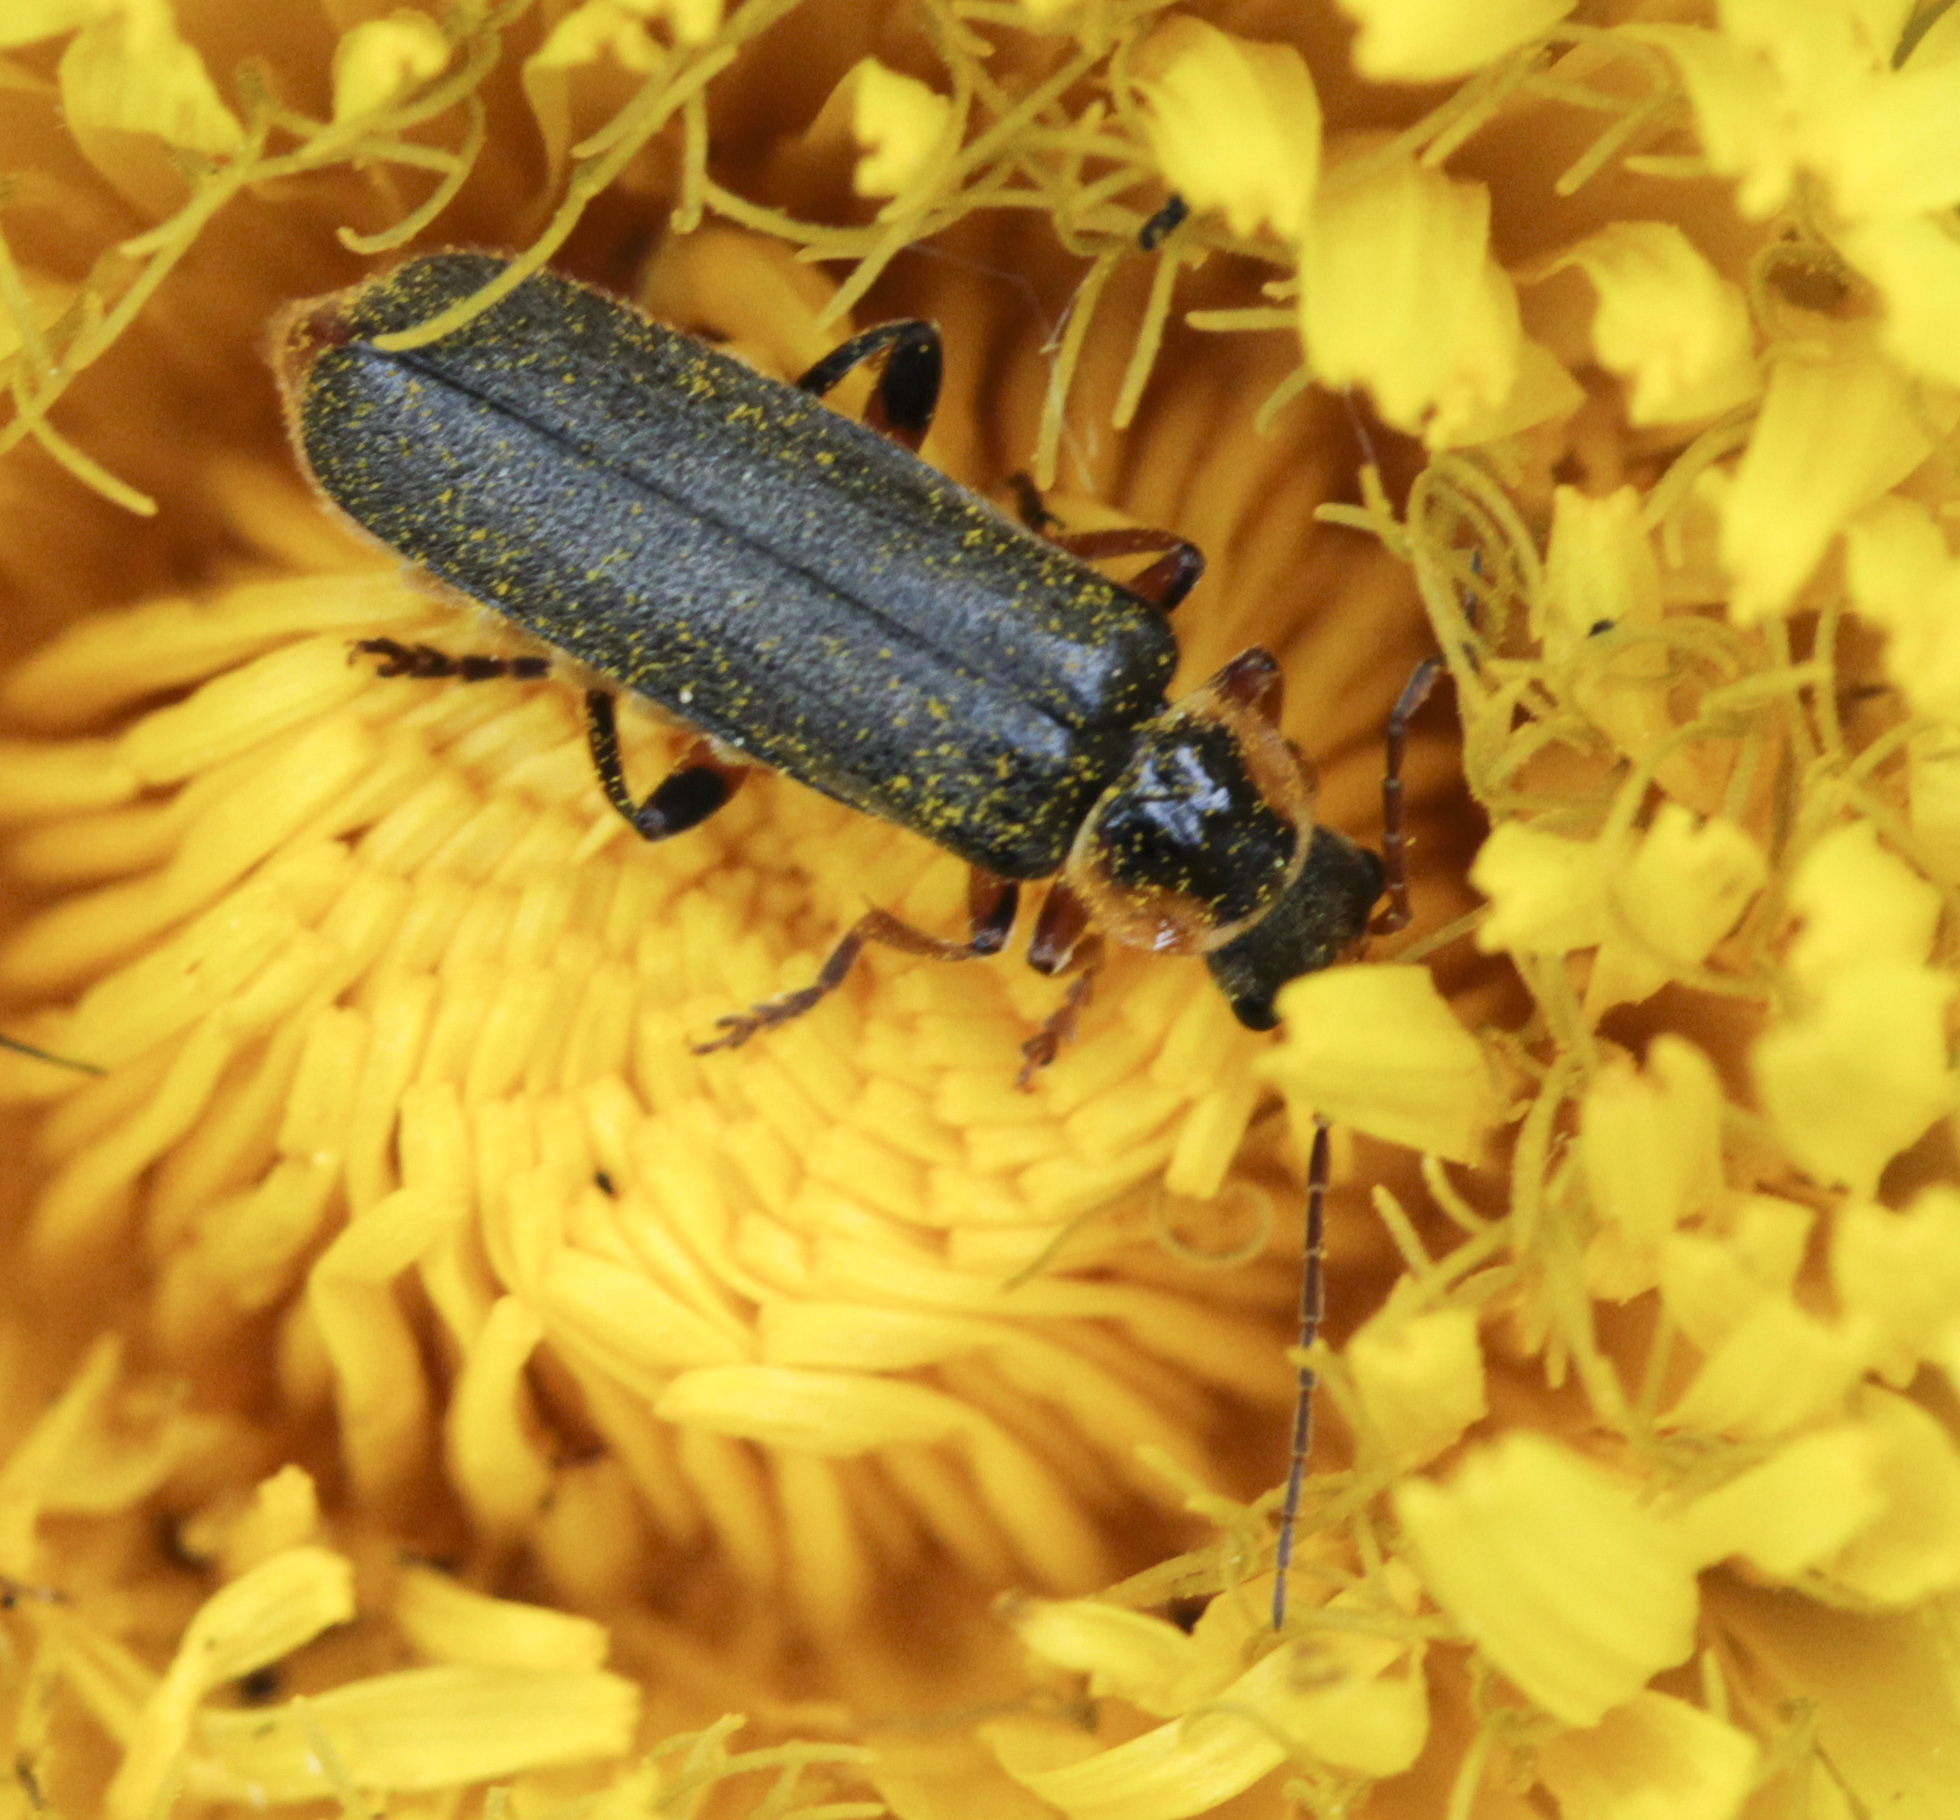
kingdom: Animalia
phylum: Arthropoda
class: Insecta
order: Coleoptera
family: Cantharidae
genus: Cantharis
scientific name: Cantharis nigricans
